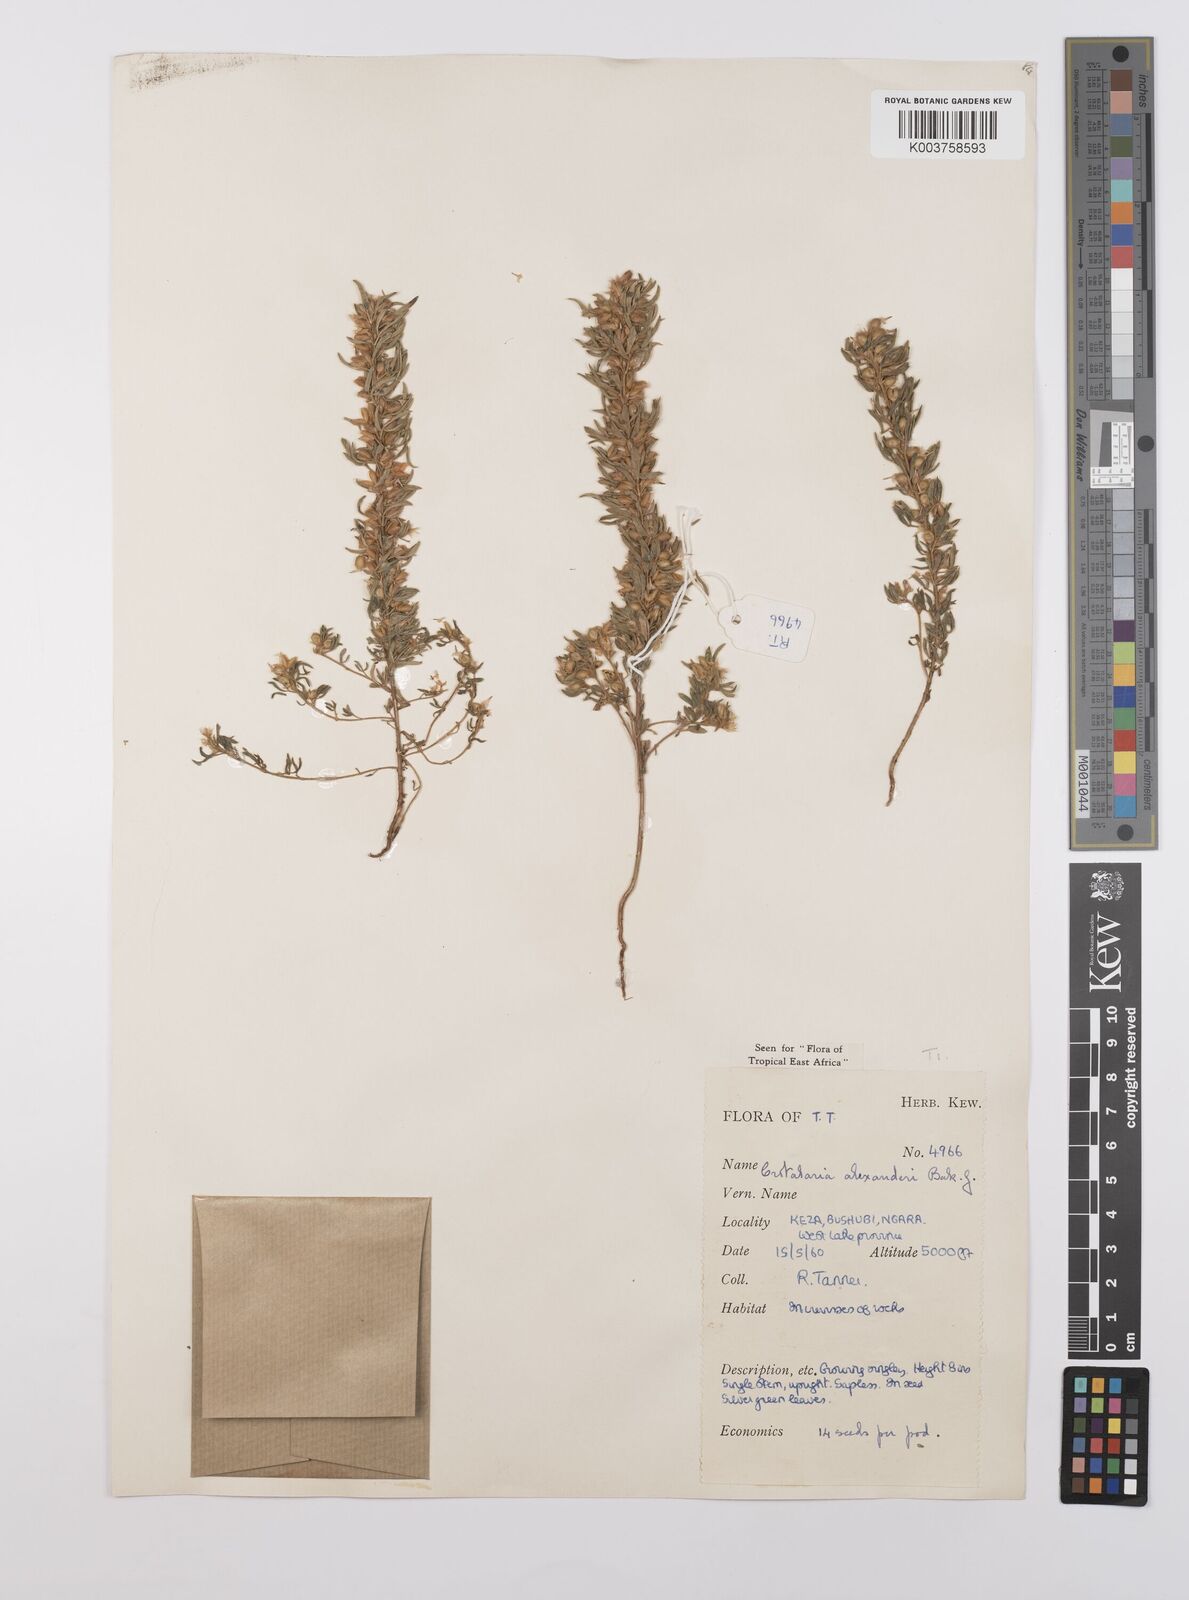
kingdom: Plantae
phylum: Tracheophyta
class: Magnoliopsida
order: Fabales
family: Fabaceae
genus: Crotalaria
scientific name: Crotalaria alexandri
